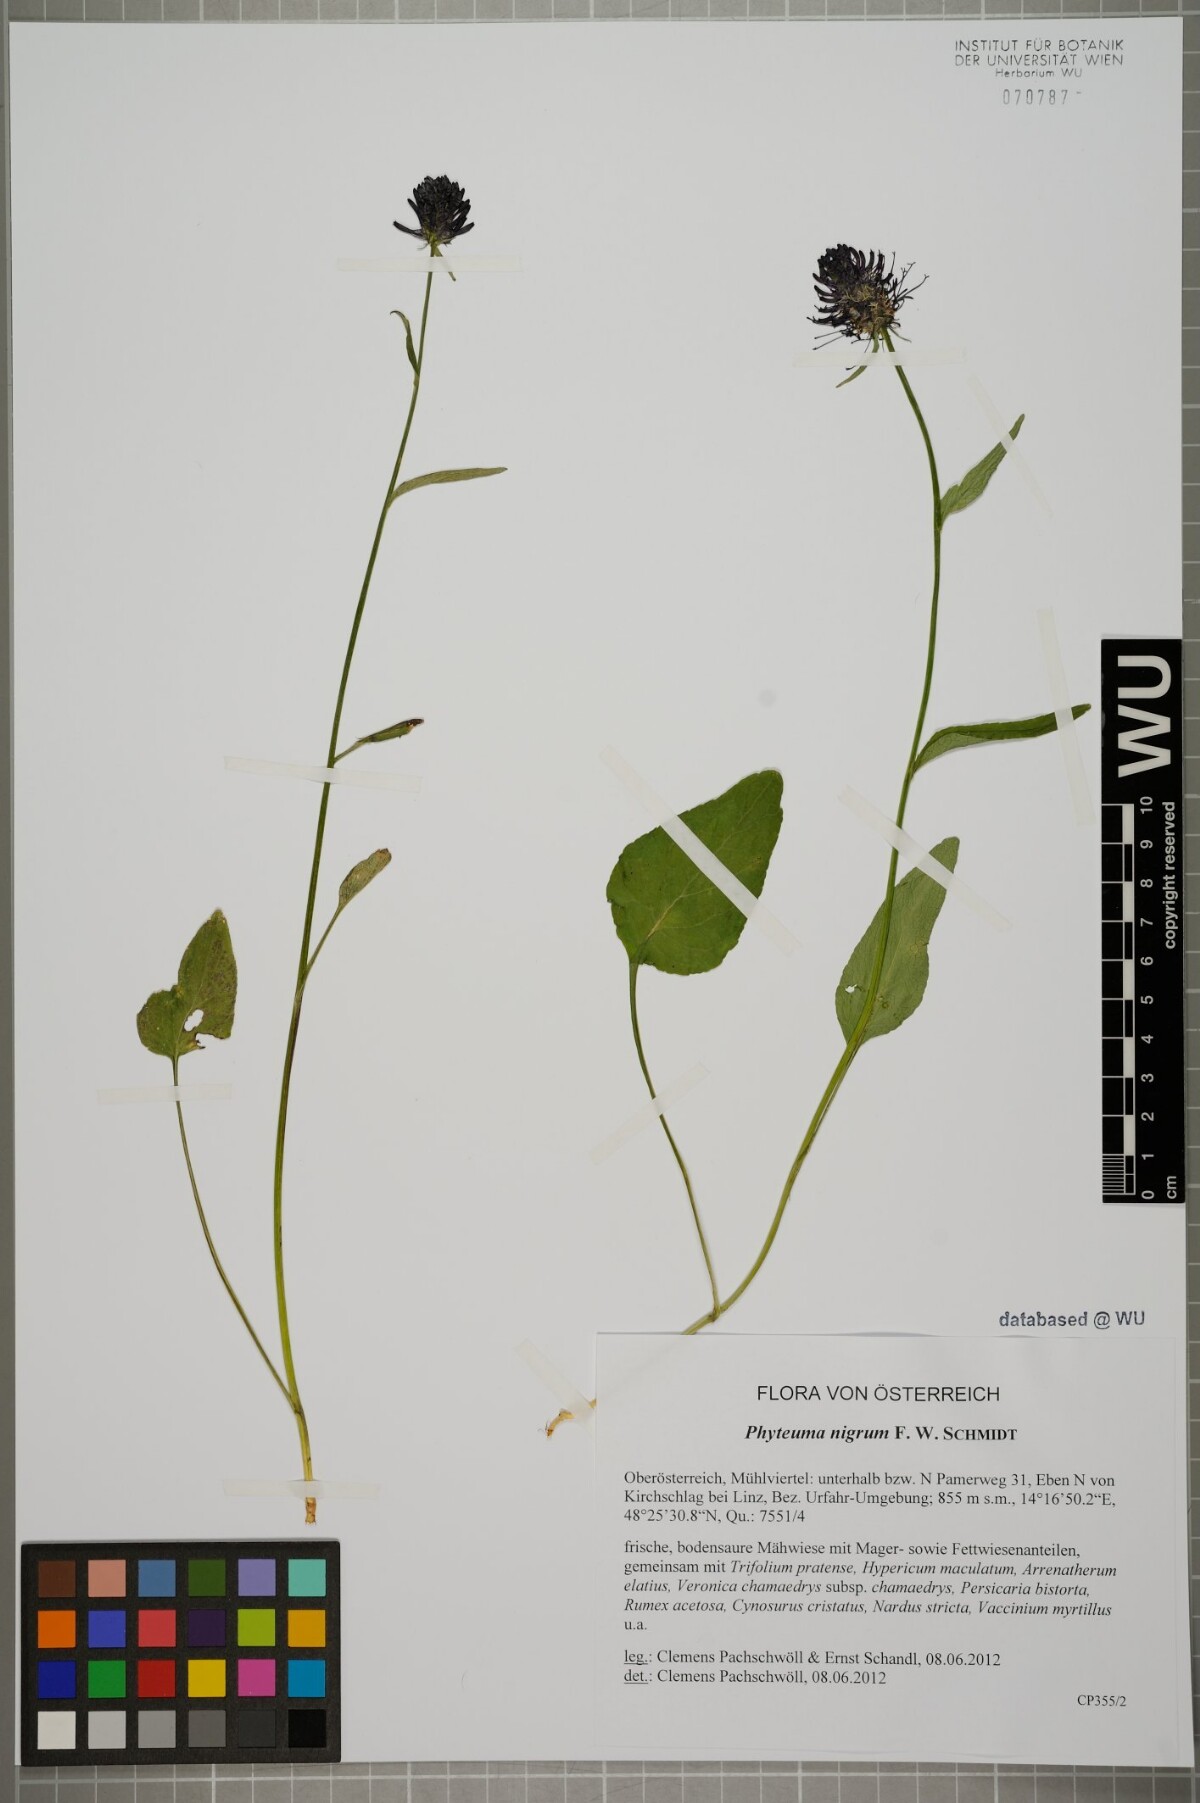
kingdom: Plantae
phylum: Tracheophyta
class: Magnoliopsida
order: Asterales
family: Campanulaceae
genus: Phyteuma
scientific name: Phyteuma nigrum
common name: Black rampion
